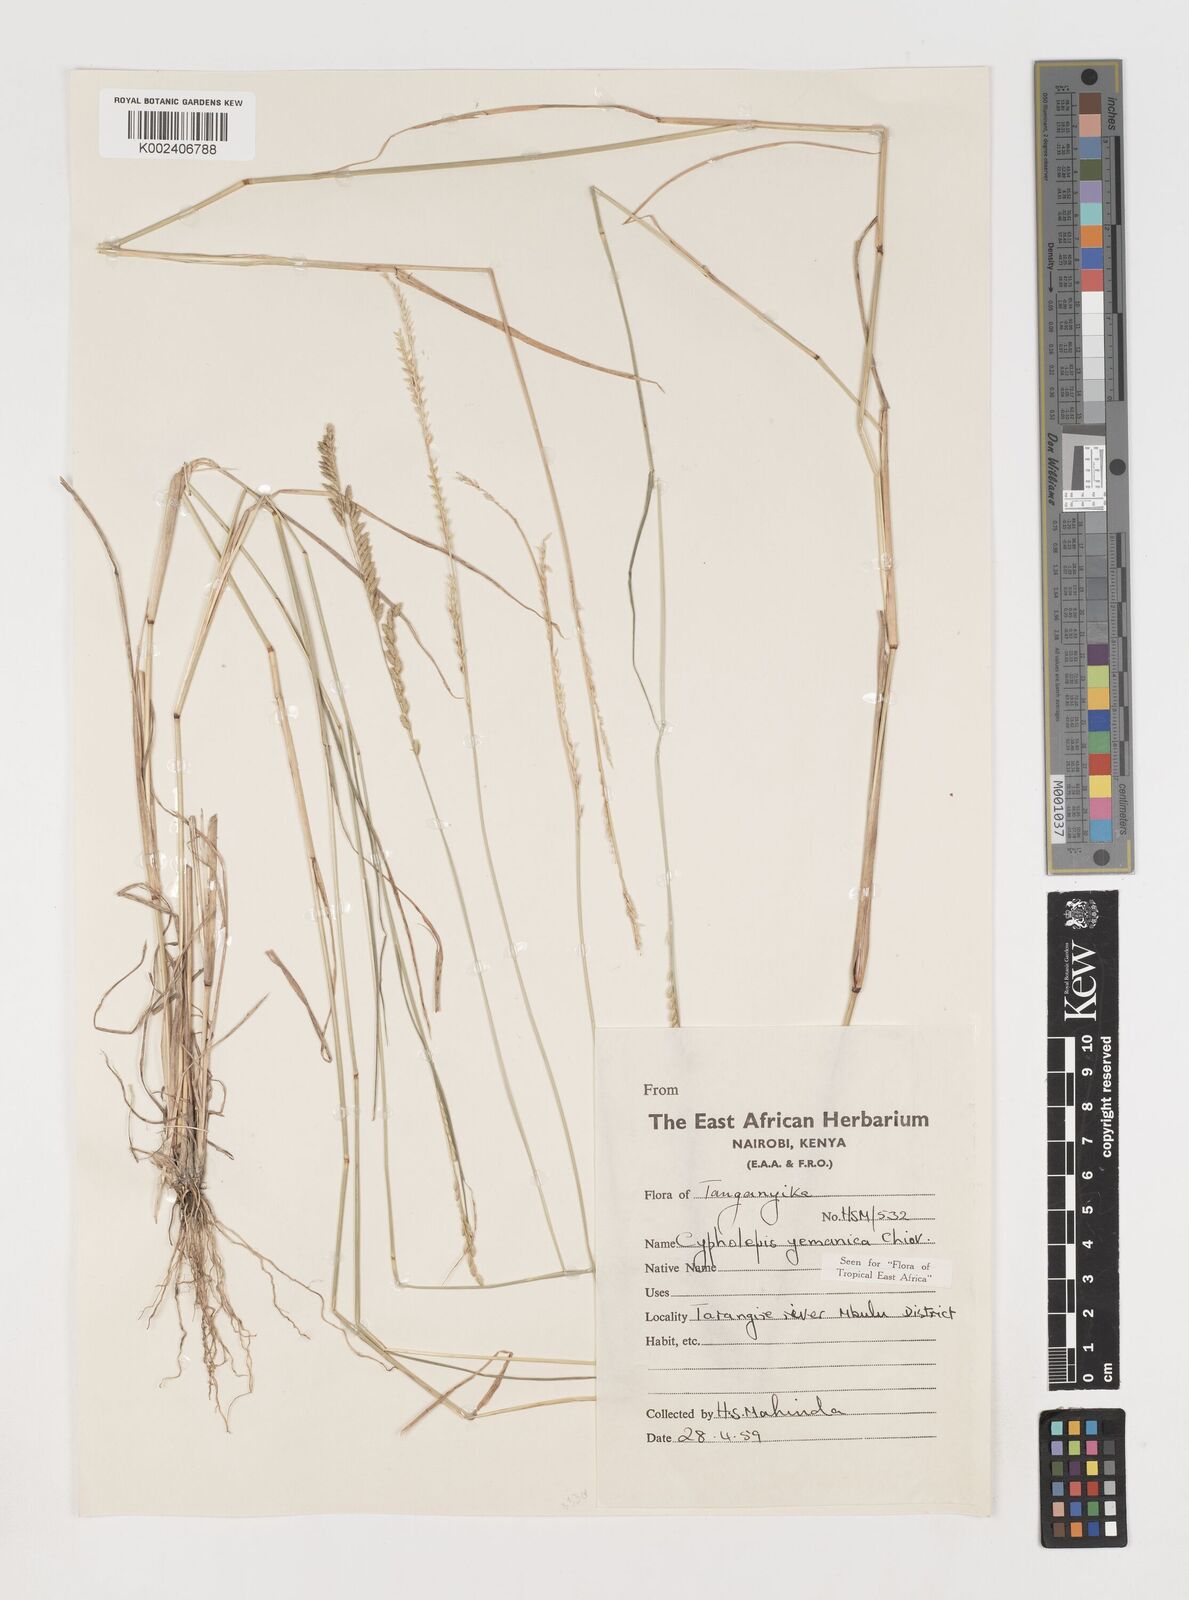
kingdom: Plantae
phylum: Tracheophyta
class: Liliopsida
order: Poales
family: Poaceae
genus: Disakisperma
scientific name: Disakisperma yemenicum
